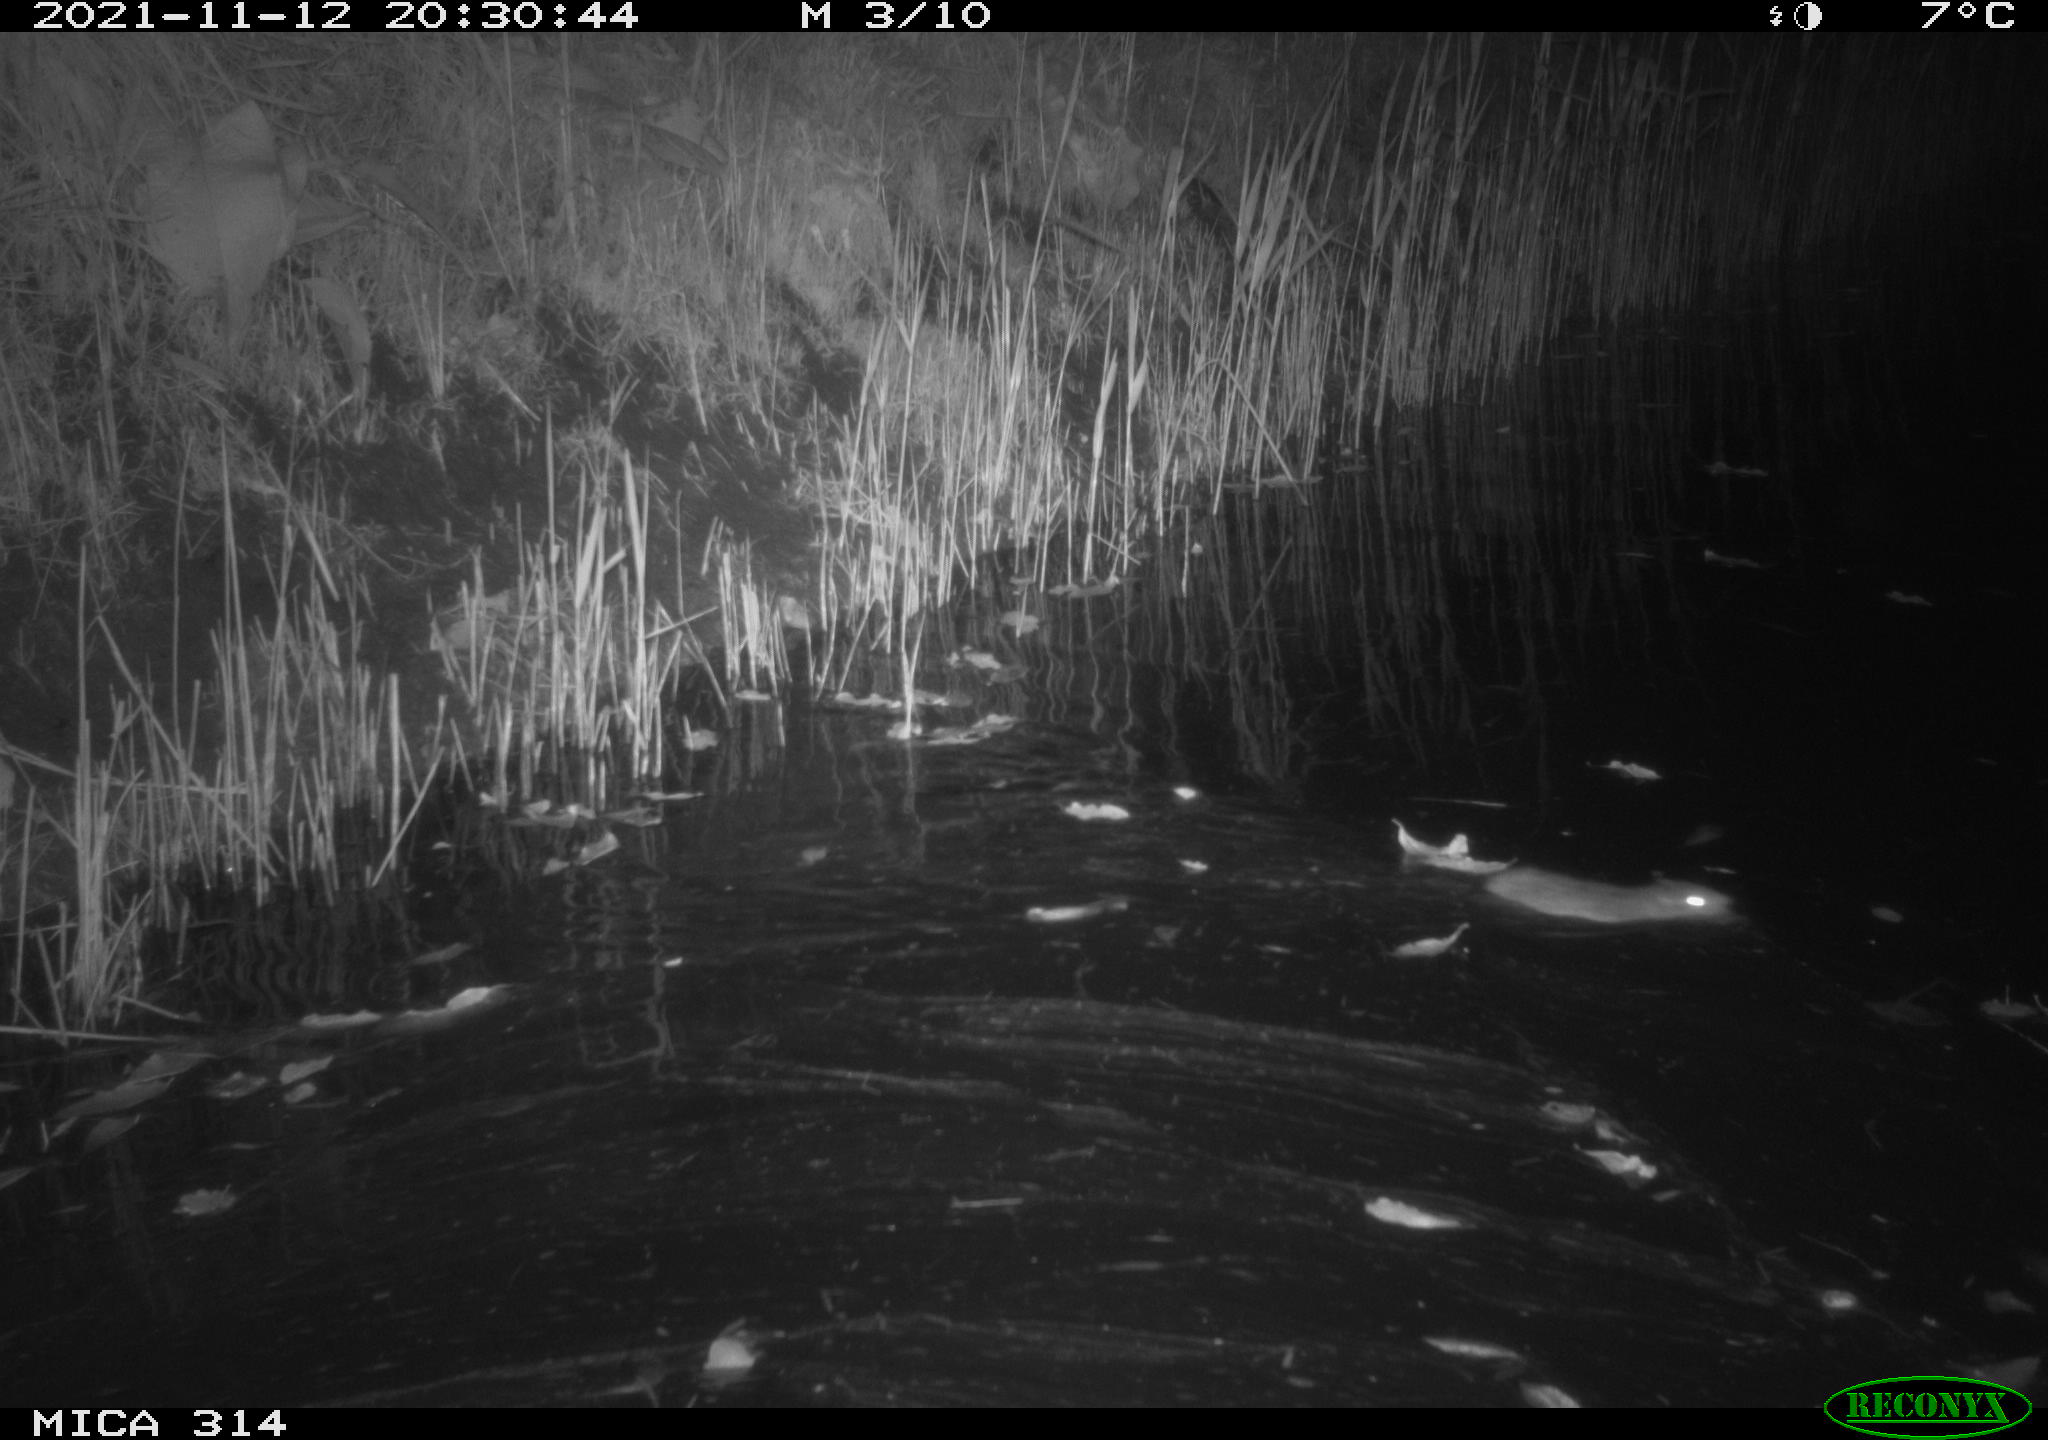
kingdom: Animalia
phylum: Chordata
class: Mammalia
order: Rodentia
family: Muridae
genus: Rattus
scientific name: Rattus norvegicus
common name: Brown rat
